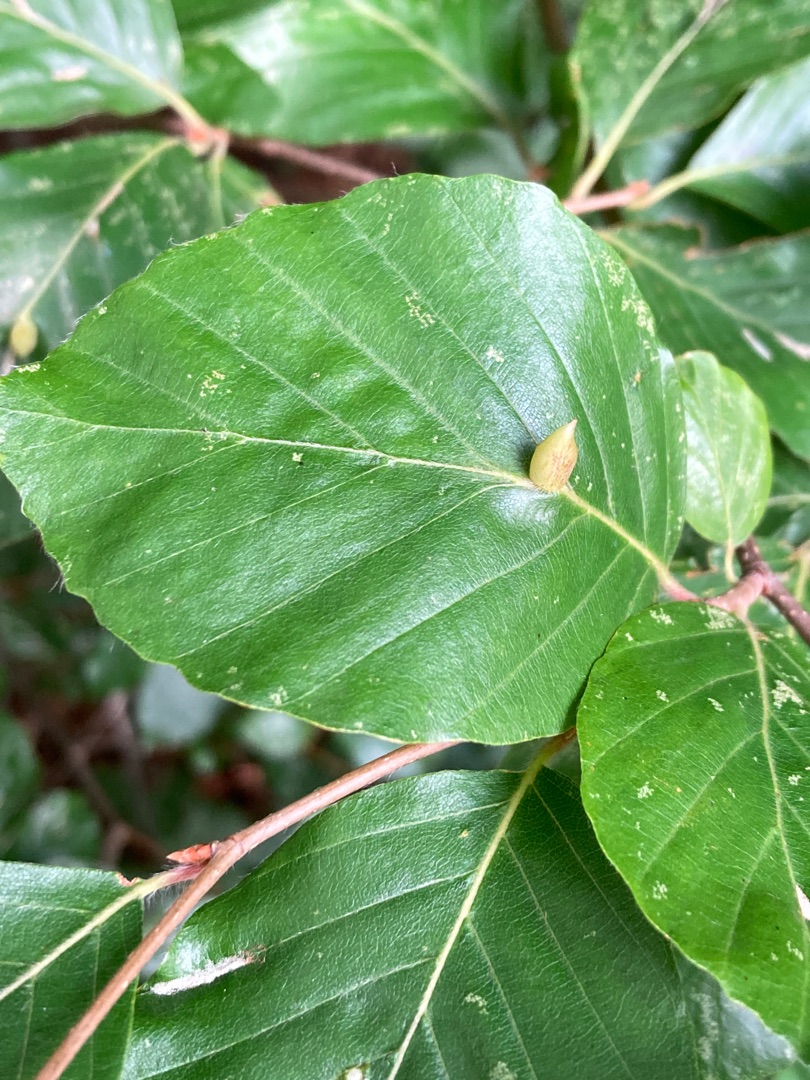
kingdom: Animalia
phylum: Arthropoda
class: Insecta
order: Diptera
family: Cecidomyiidae
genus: Mikiola
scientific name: Mikiola fagi
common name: Bøgegalmyg
